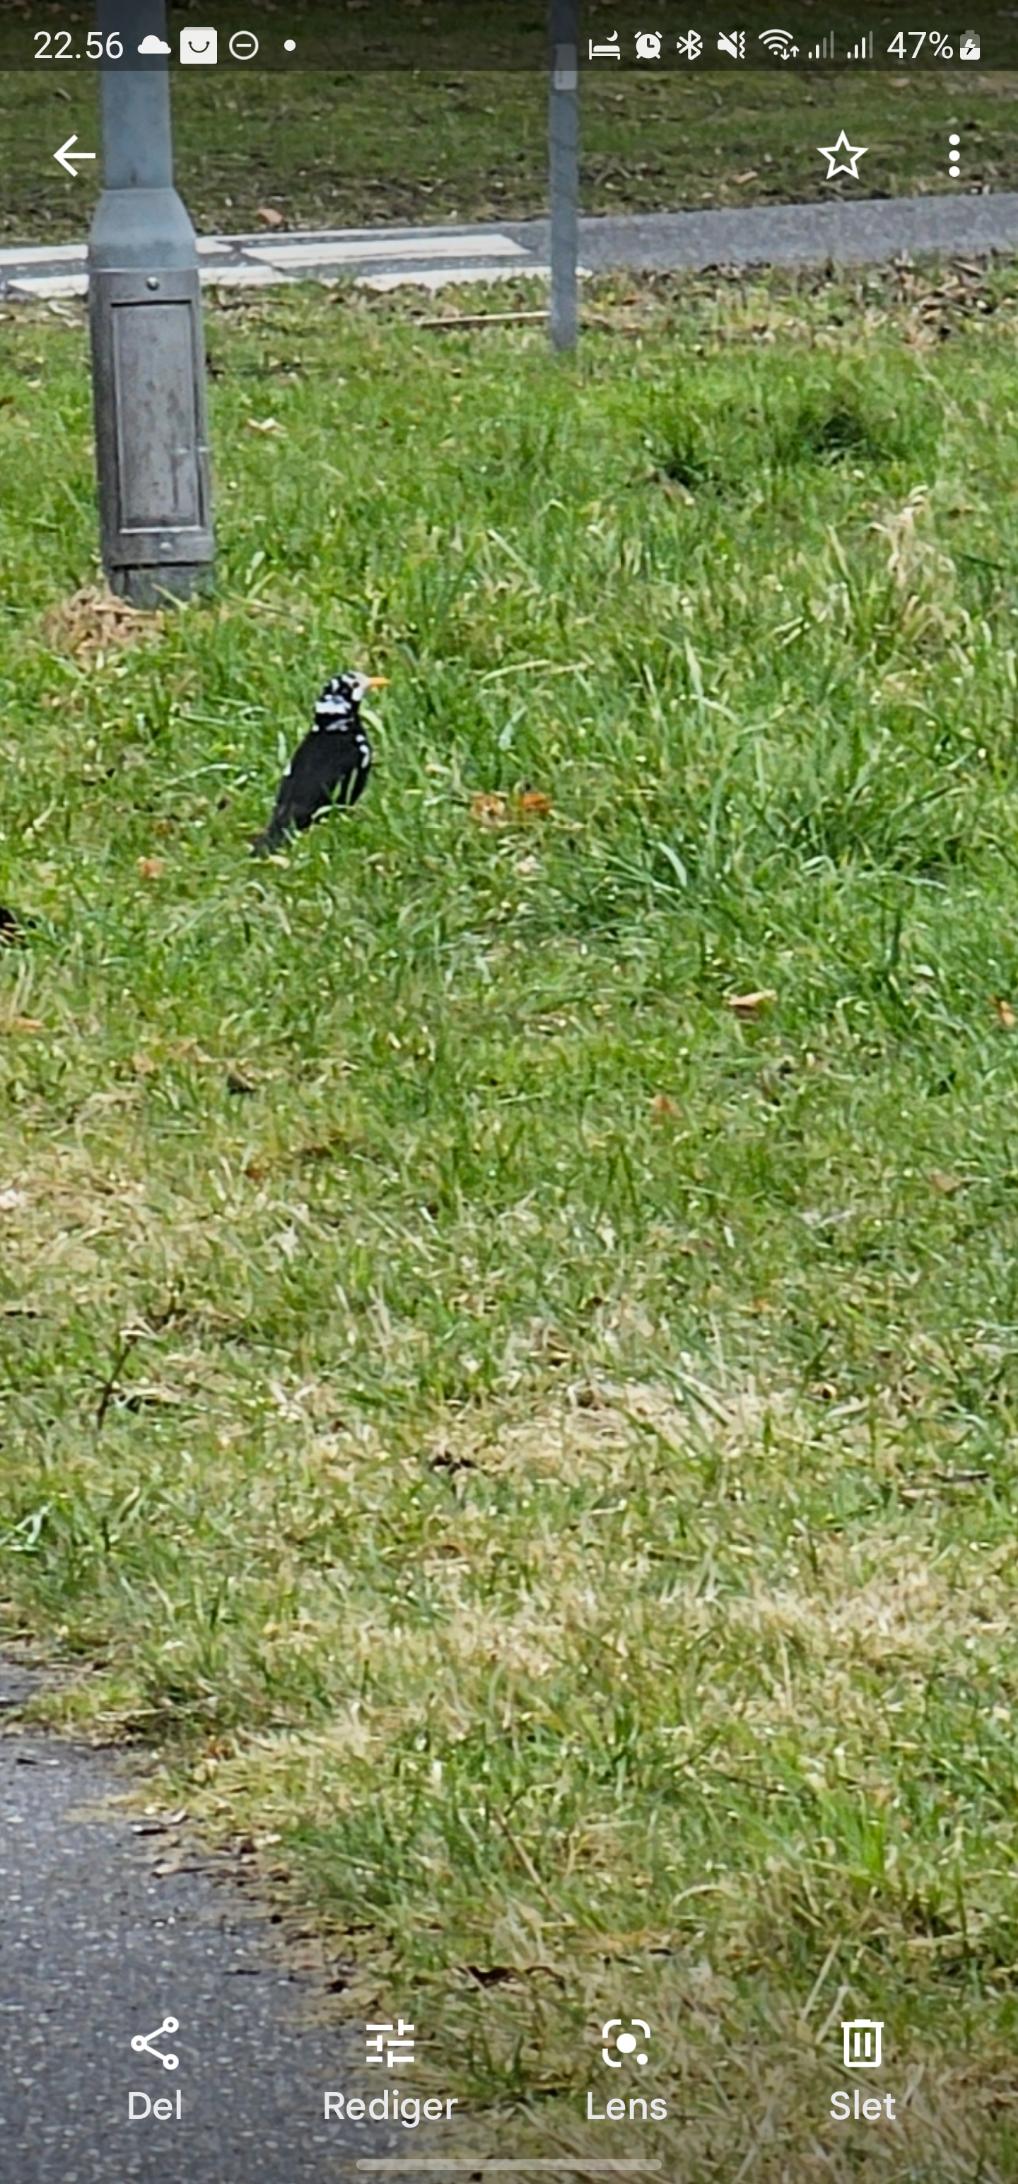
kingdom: Animalia
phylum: Chordata
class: Aves
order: Passeriformes
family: Turdidae
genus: Turdus
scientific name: Turdus merula
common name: Solsort
